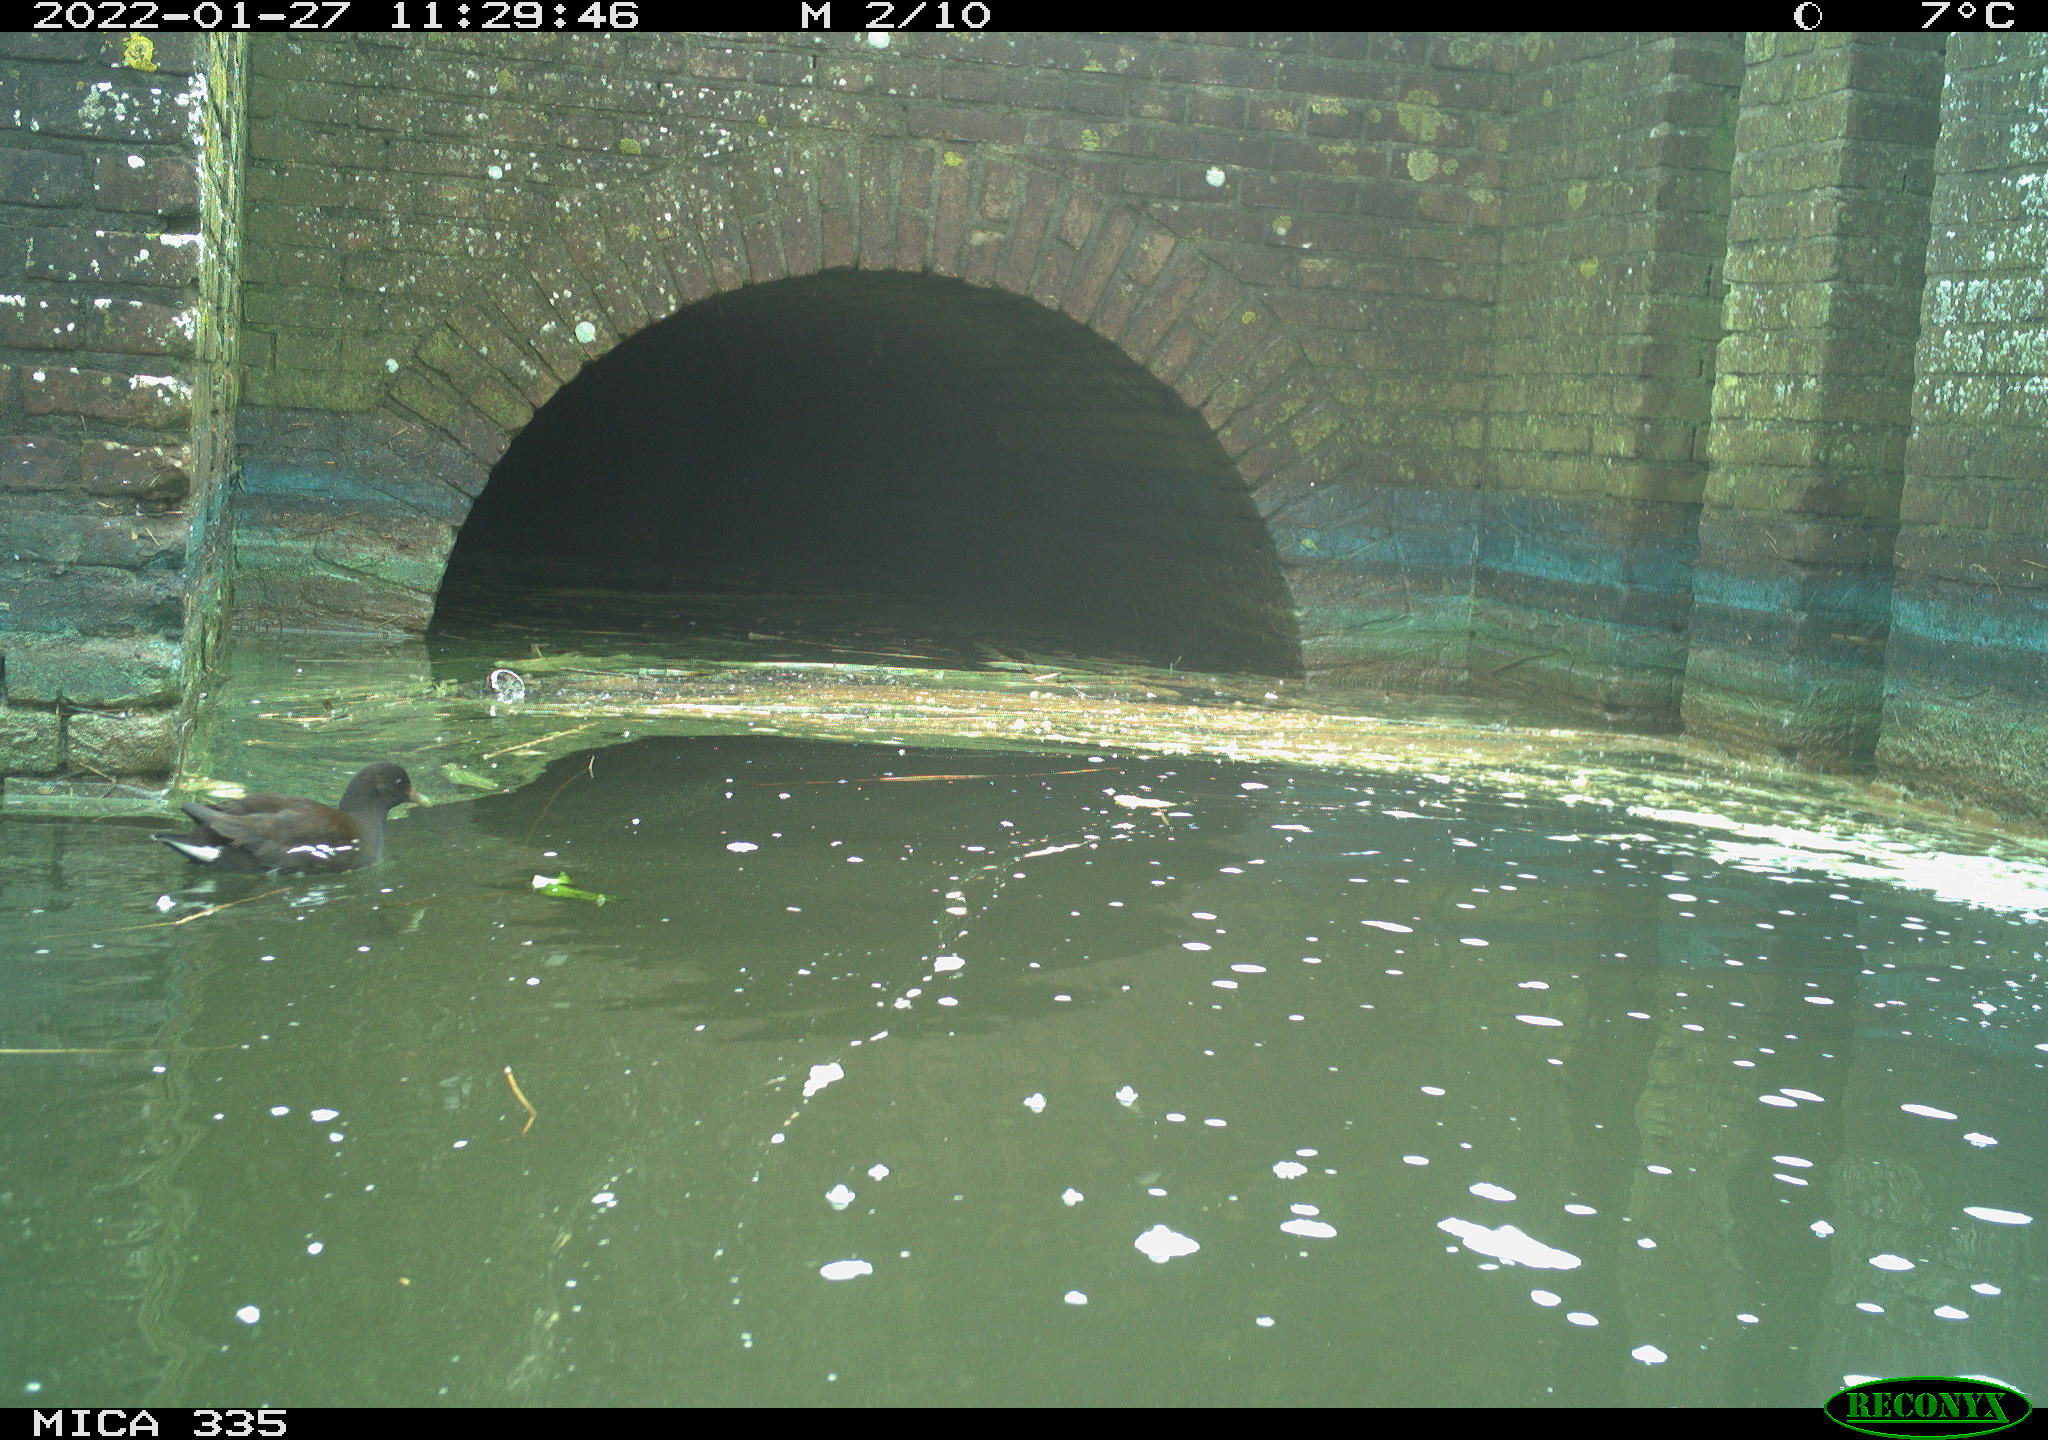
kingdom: Animalia
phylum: Chordata
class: Aves
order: Gruiformes
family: Rallidae
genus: Gallinula
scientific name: Gallinula chloropus
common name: Common moorhen
